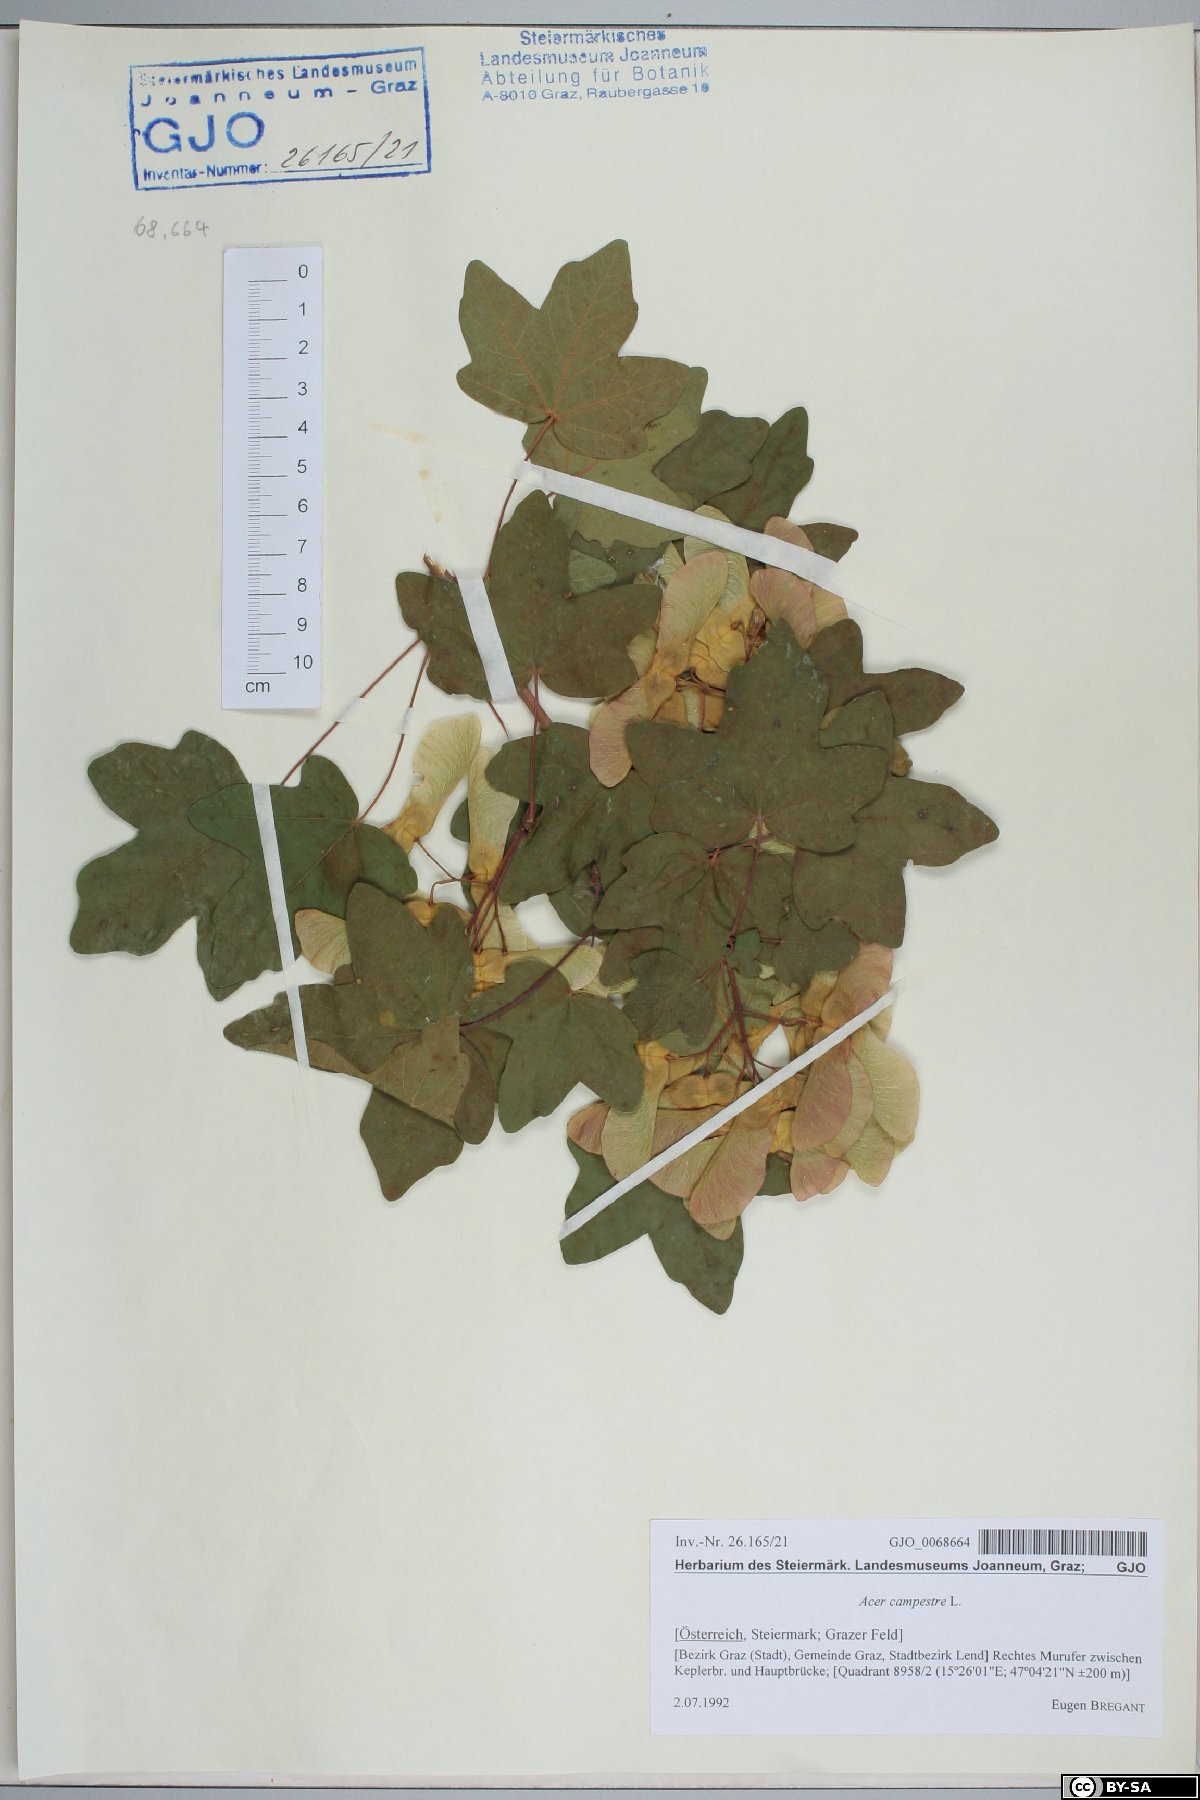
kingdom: Plantae
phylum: Tracheophyta
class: Magnoliopsida
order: Sapindales
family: Sapindaceae
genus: Acer
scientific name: Acer campestre
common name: Field maple
